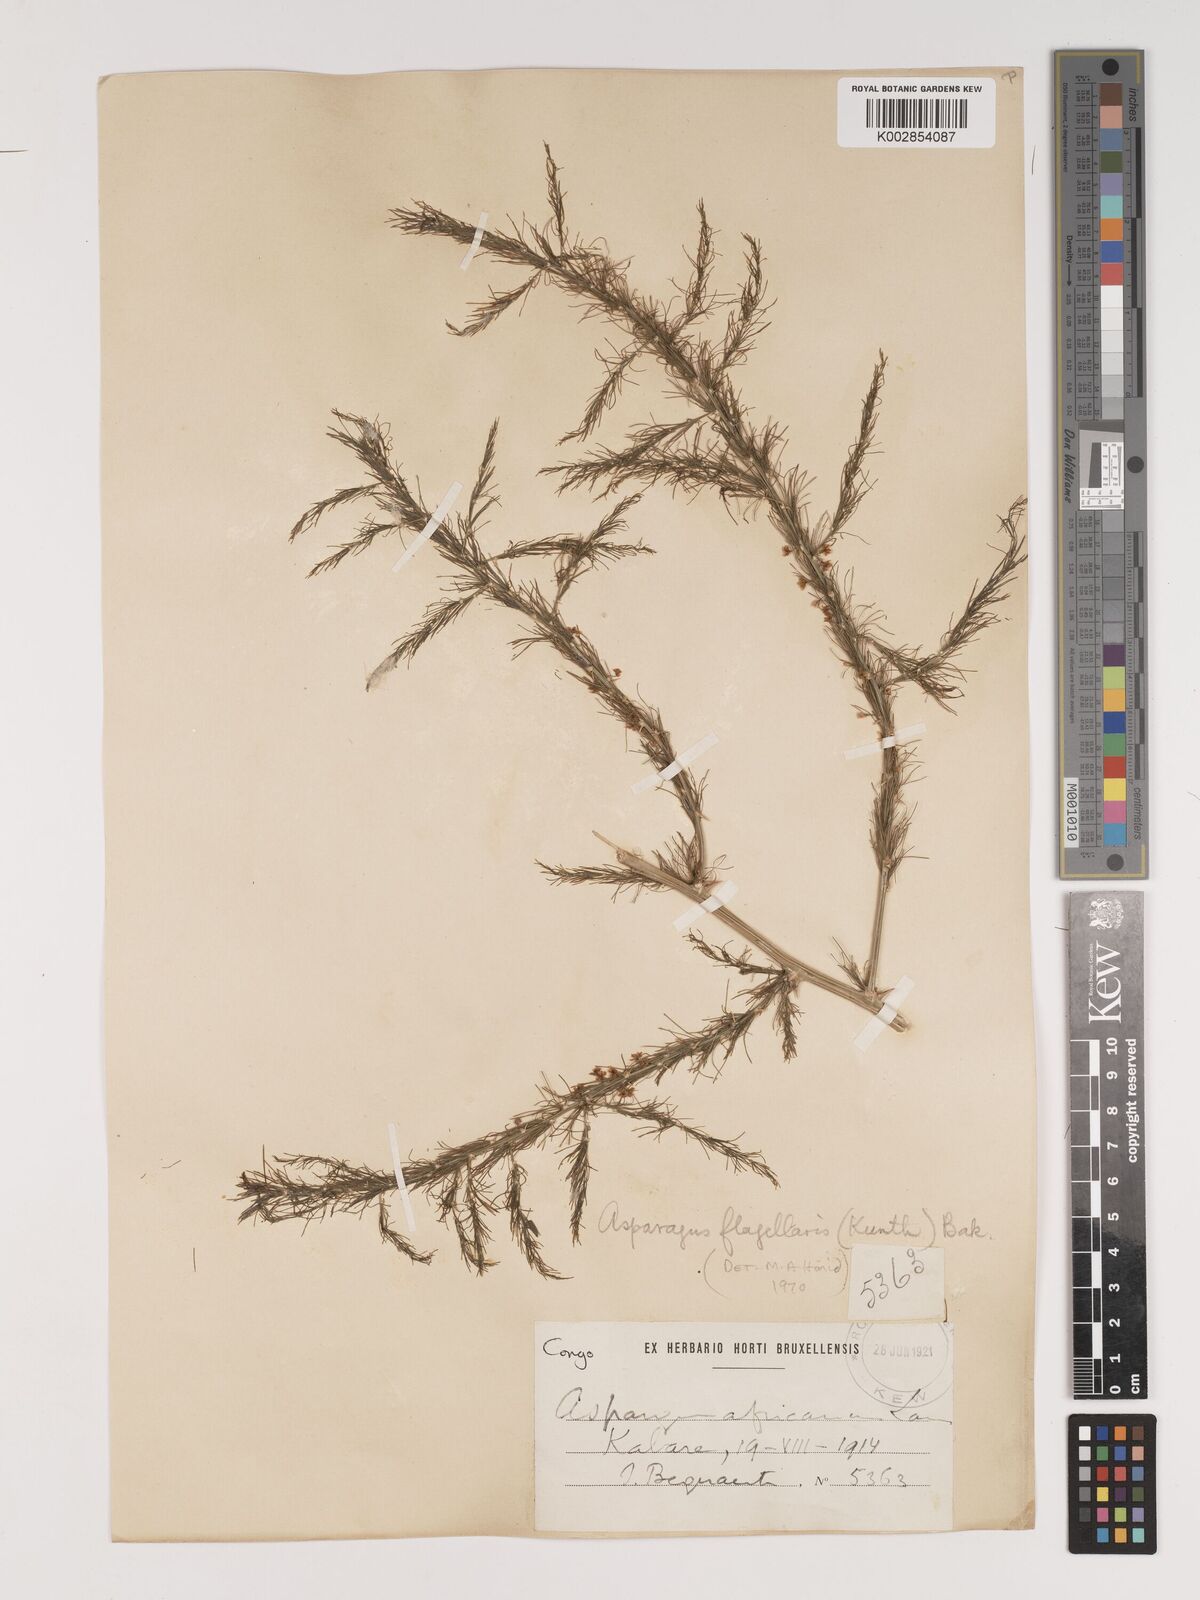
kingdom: Plantae
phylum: Tracheophyta
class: Liliopsida
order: Asparagales
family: Asparagaceae
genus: Asparagus
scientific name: Asparagus flagellaris
